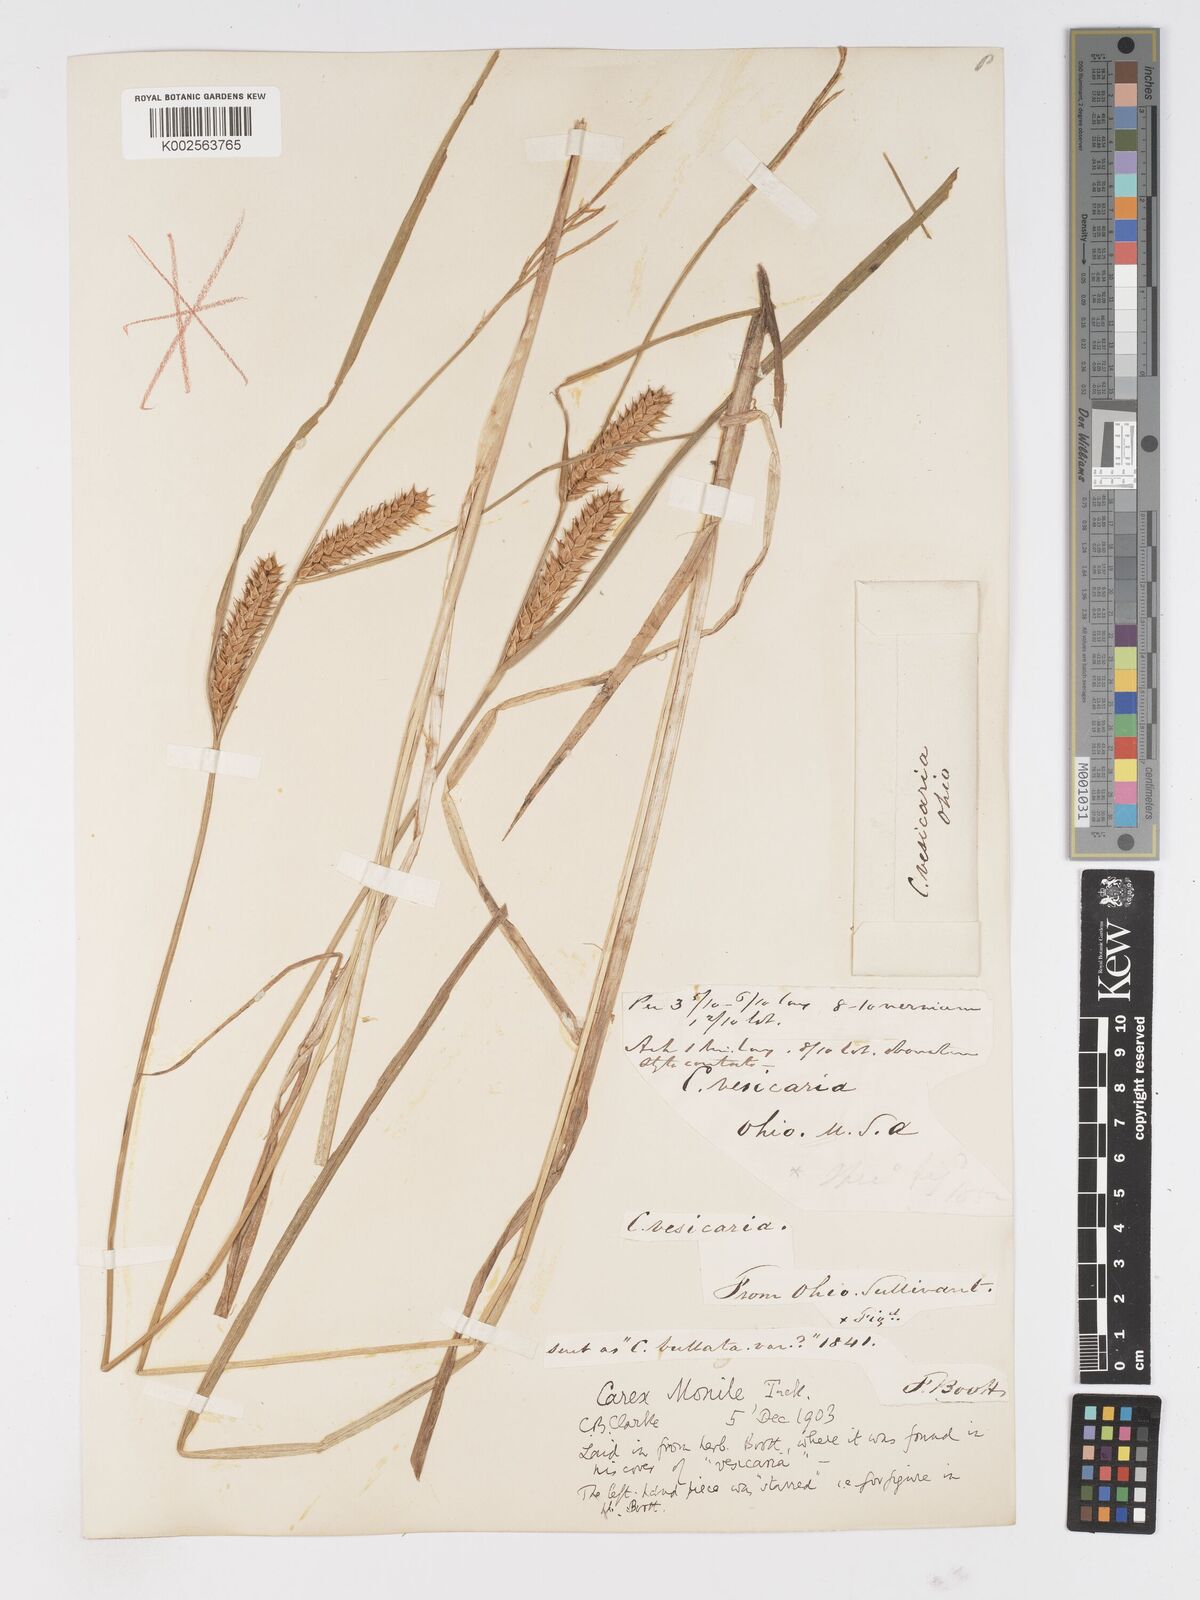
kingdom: Plantae
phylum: Tracheophyta
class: Liliopsida
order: Poales
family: Cyperaceae
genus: Carex
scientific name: Carex vesicaria
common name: Bladder-sedge
